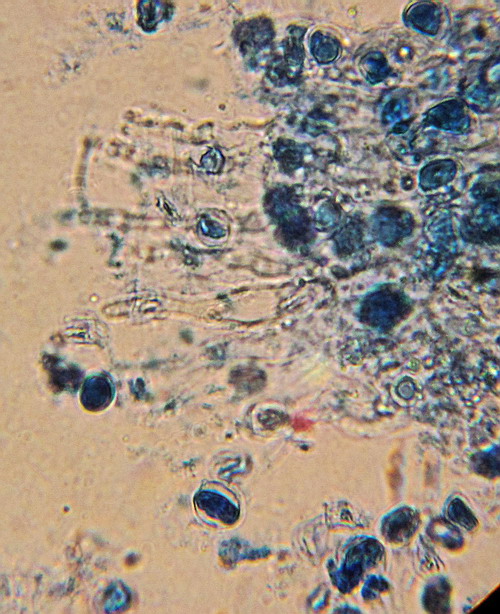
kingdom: Fungi
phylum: Basidiomycota
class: Agaricomycetes
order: Agaricales
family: Radulomycetaceae
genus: Radulomyces
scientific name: Radulomyces confluens
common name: glat naftalinskind
